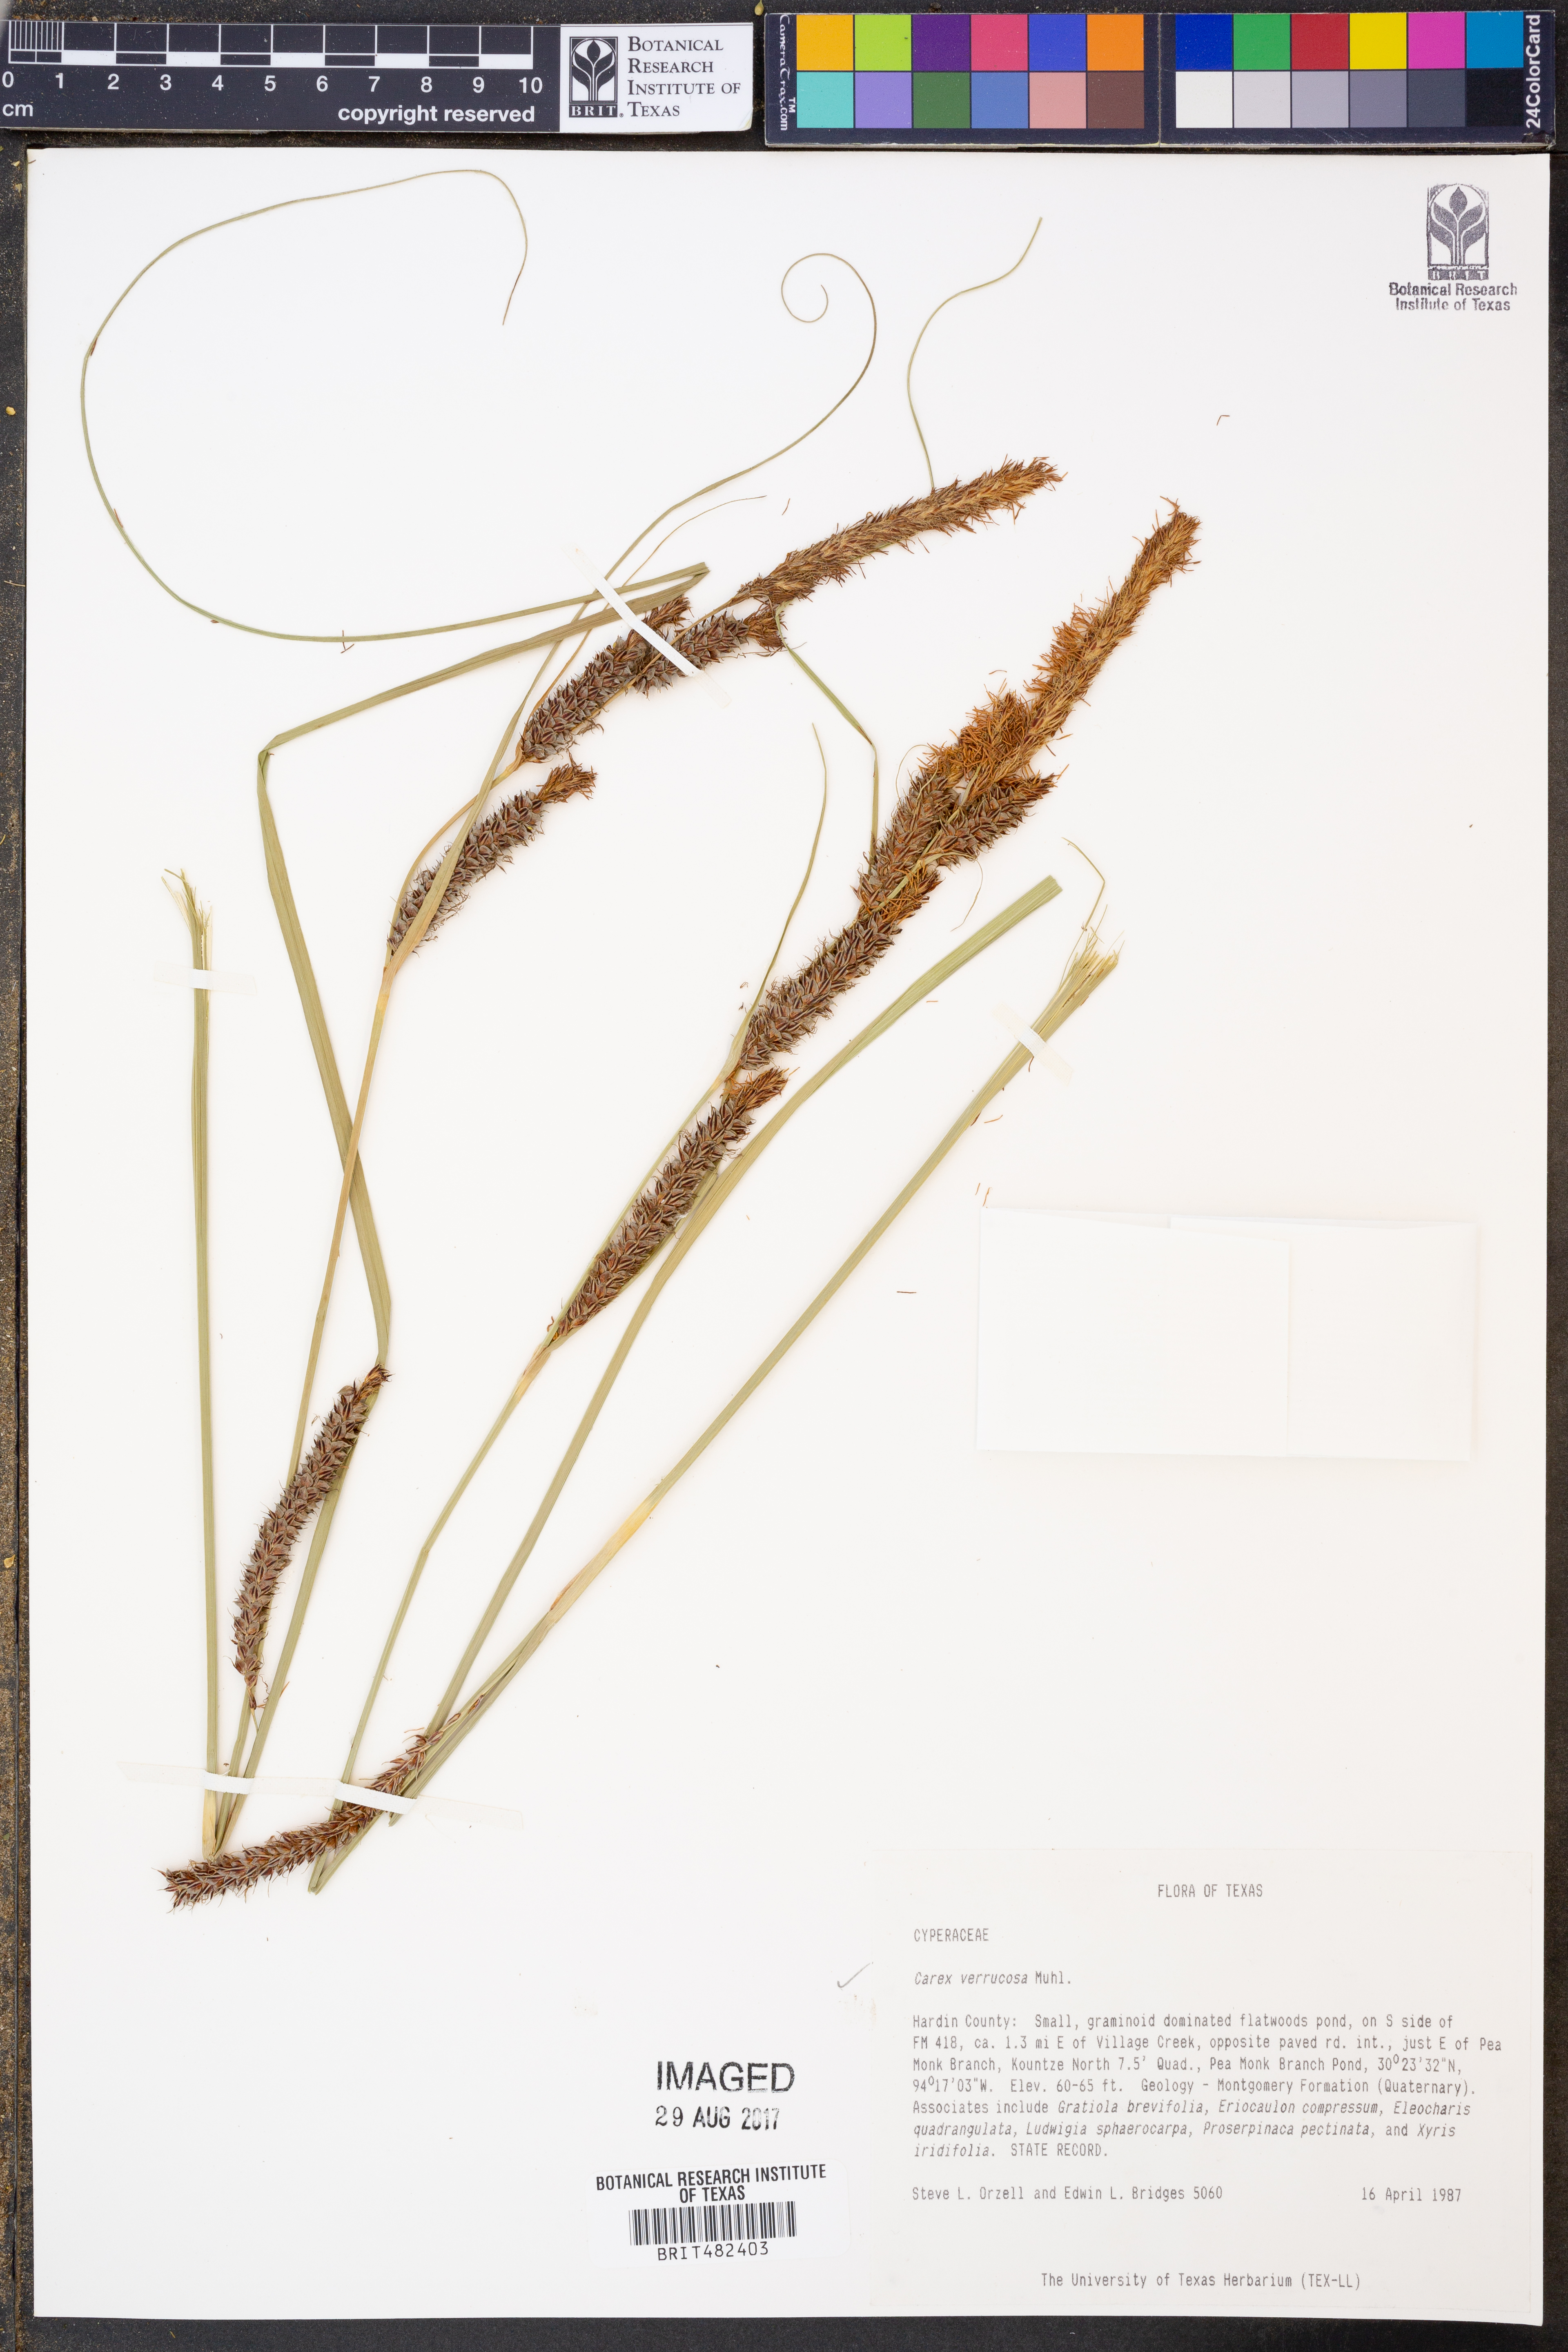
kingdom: Plantae
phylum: Tracheophyta
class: Liliopsida
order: Poales
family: Cyperaceae
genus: Carex
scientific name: Carex verrucosa
